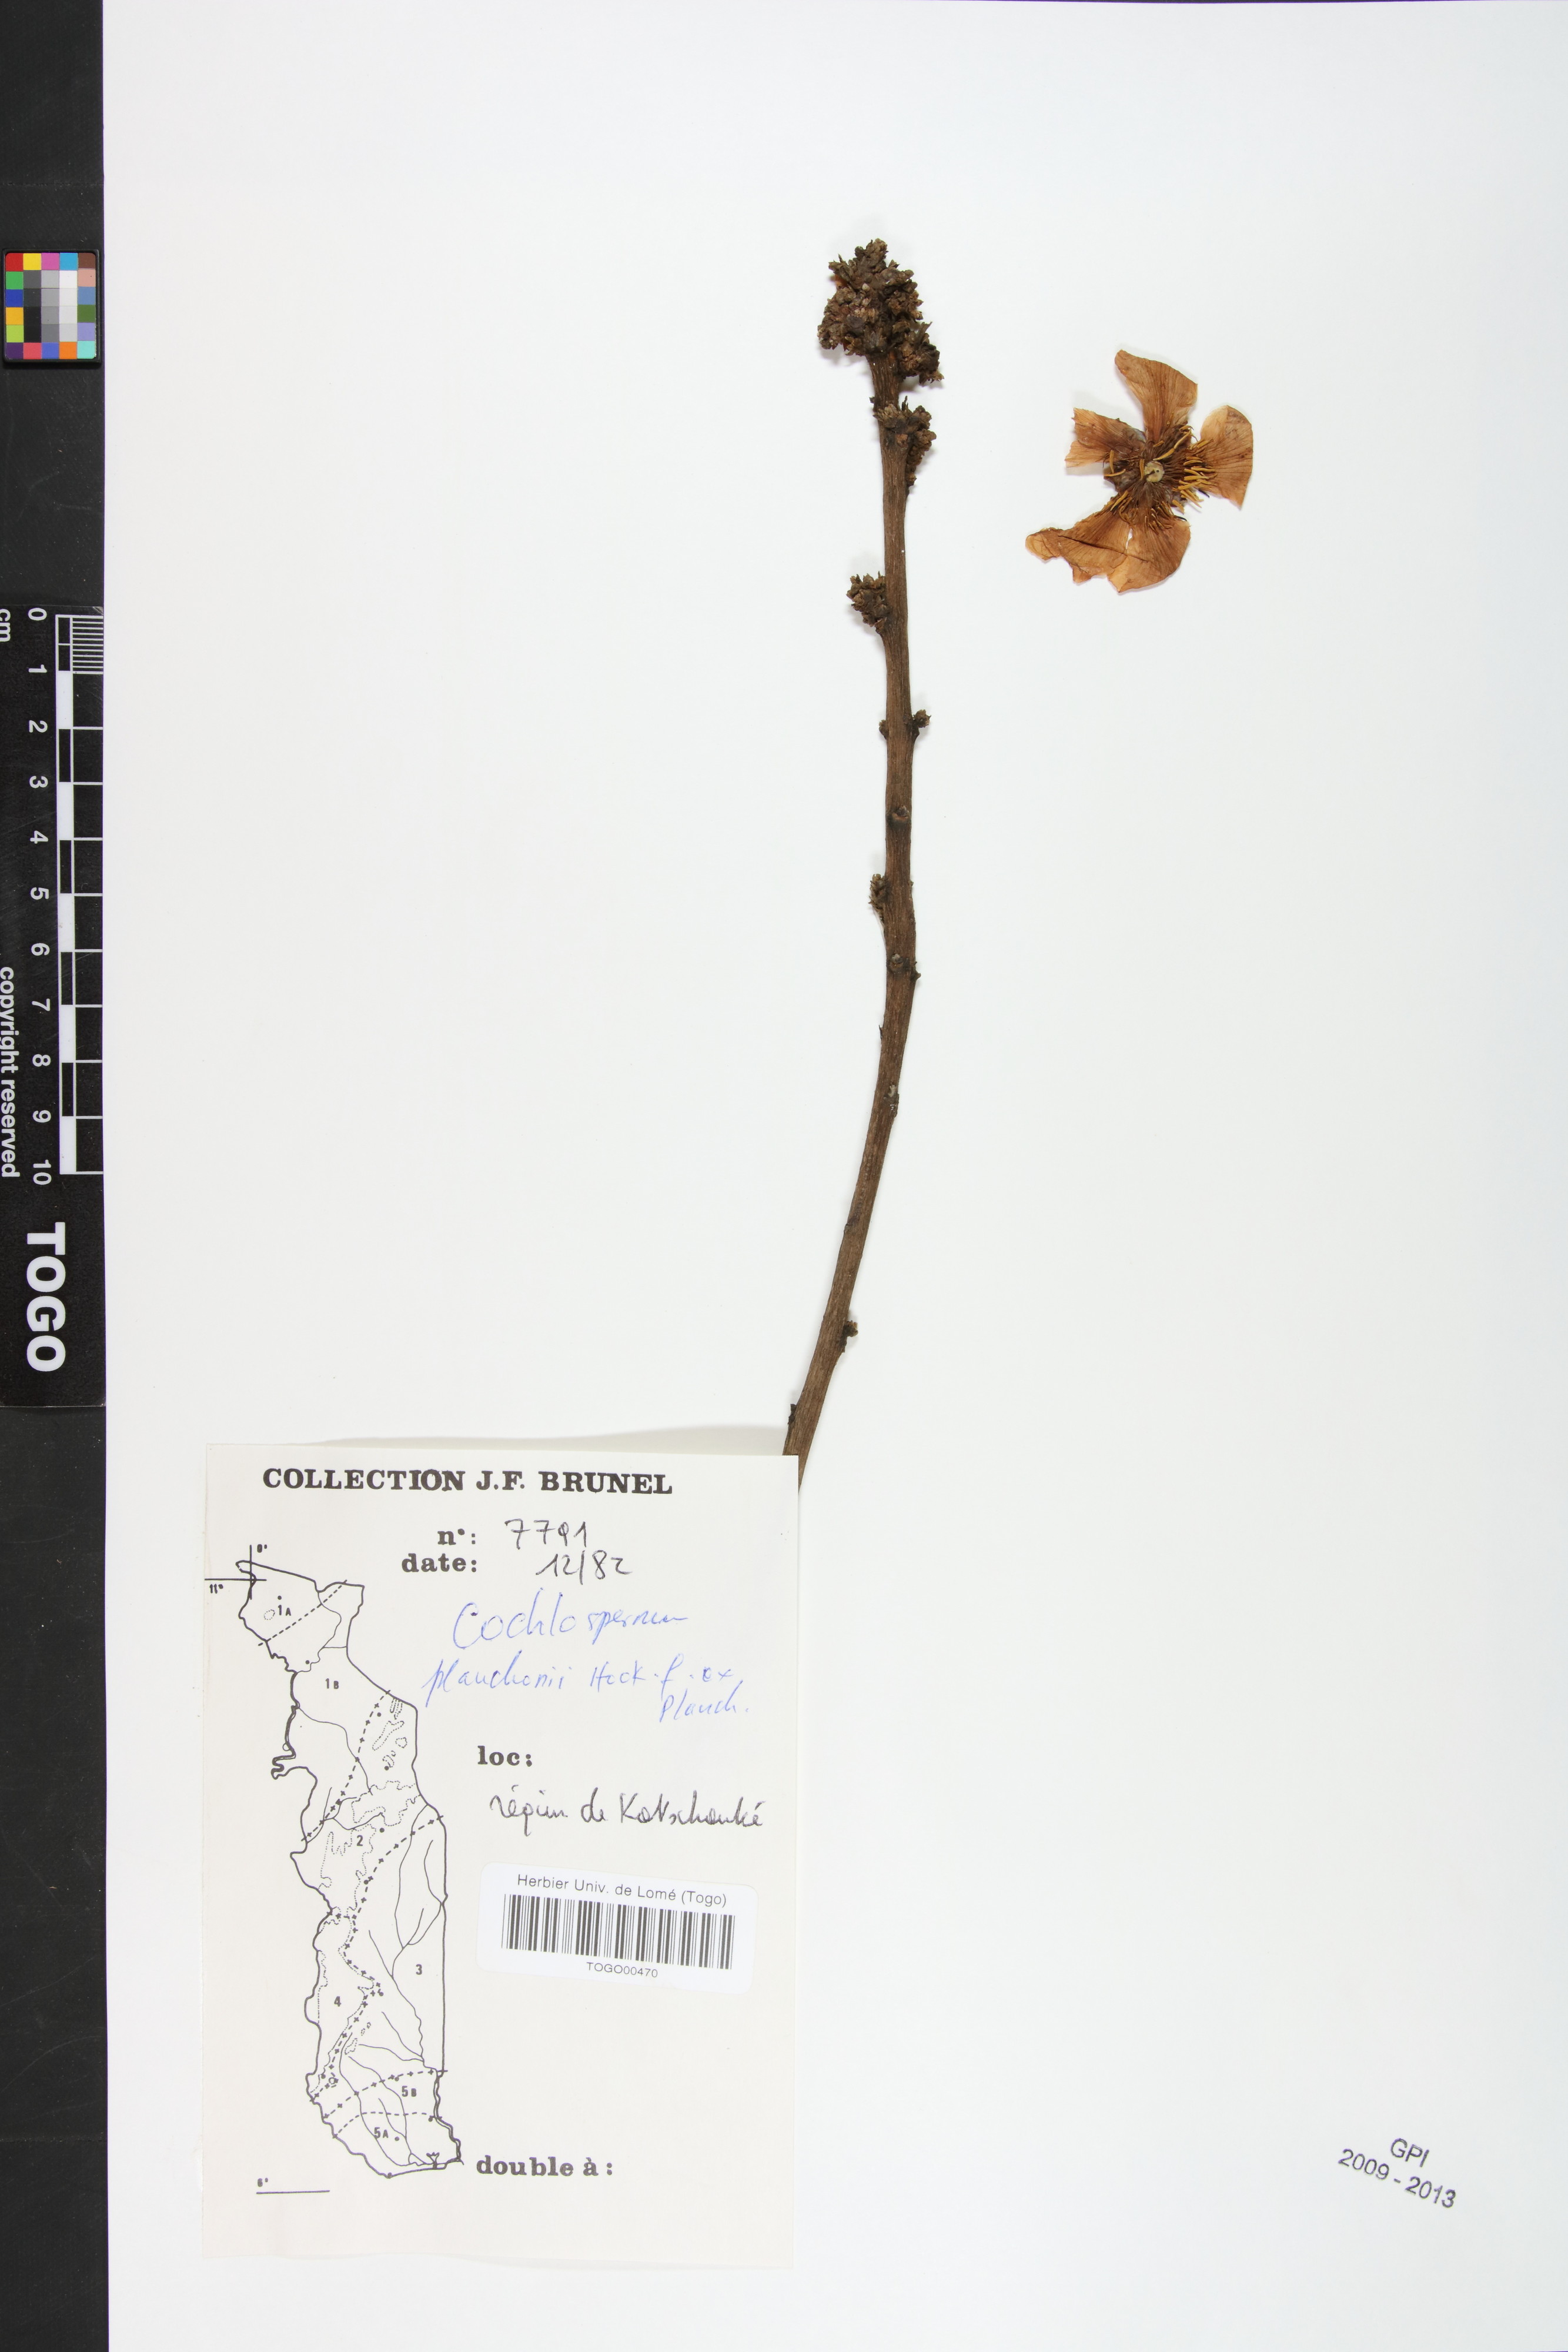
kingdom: Plantae
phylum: Tracheophyta
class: Magnoliopsida
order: Malvales
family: Cochlospermaceae
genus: Cochlospermum
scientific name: Cochlospermum planchonii
